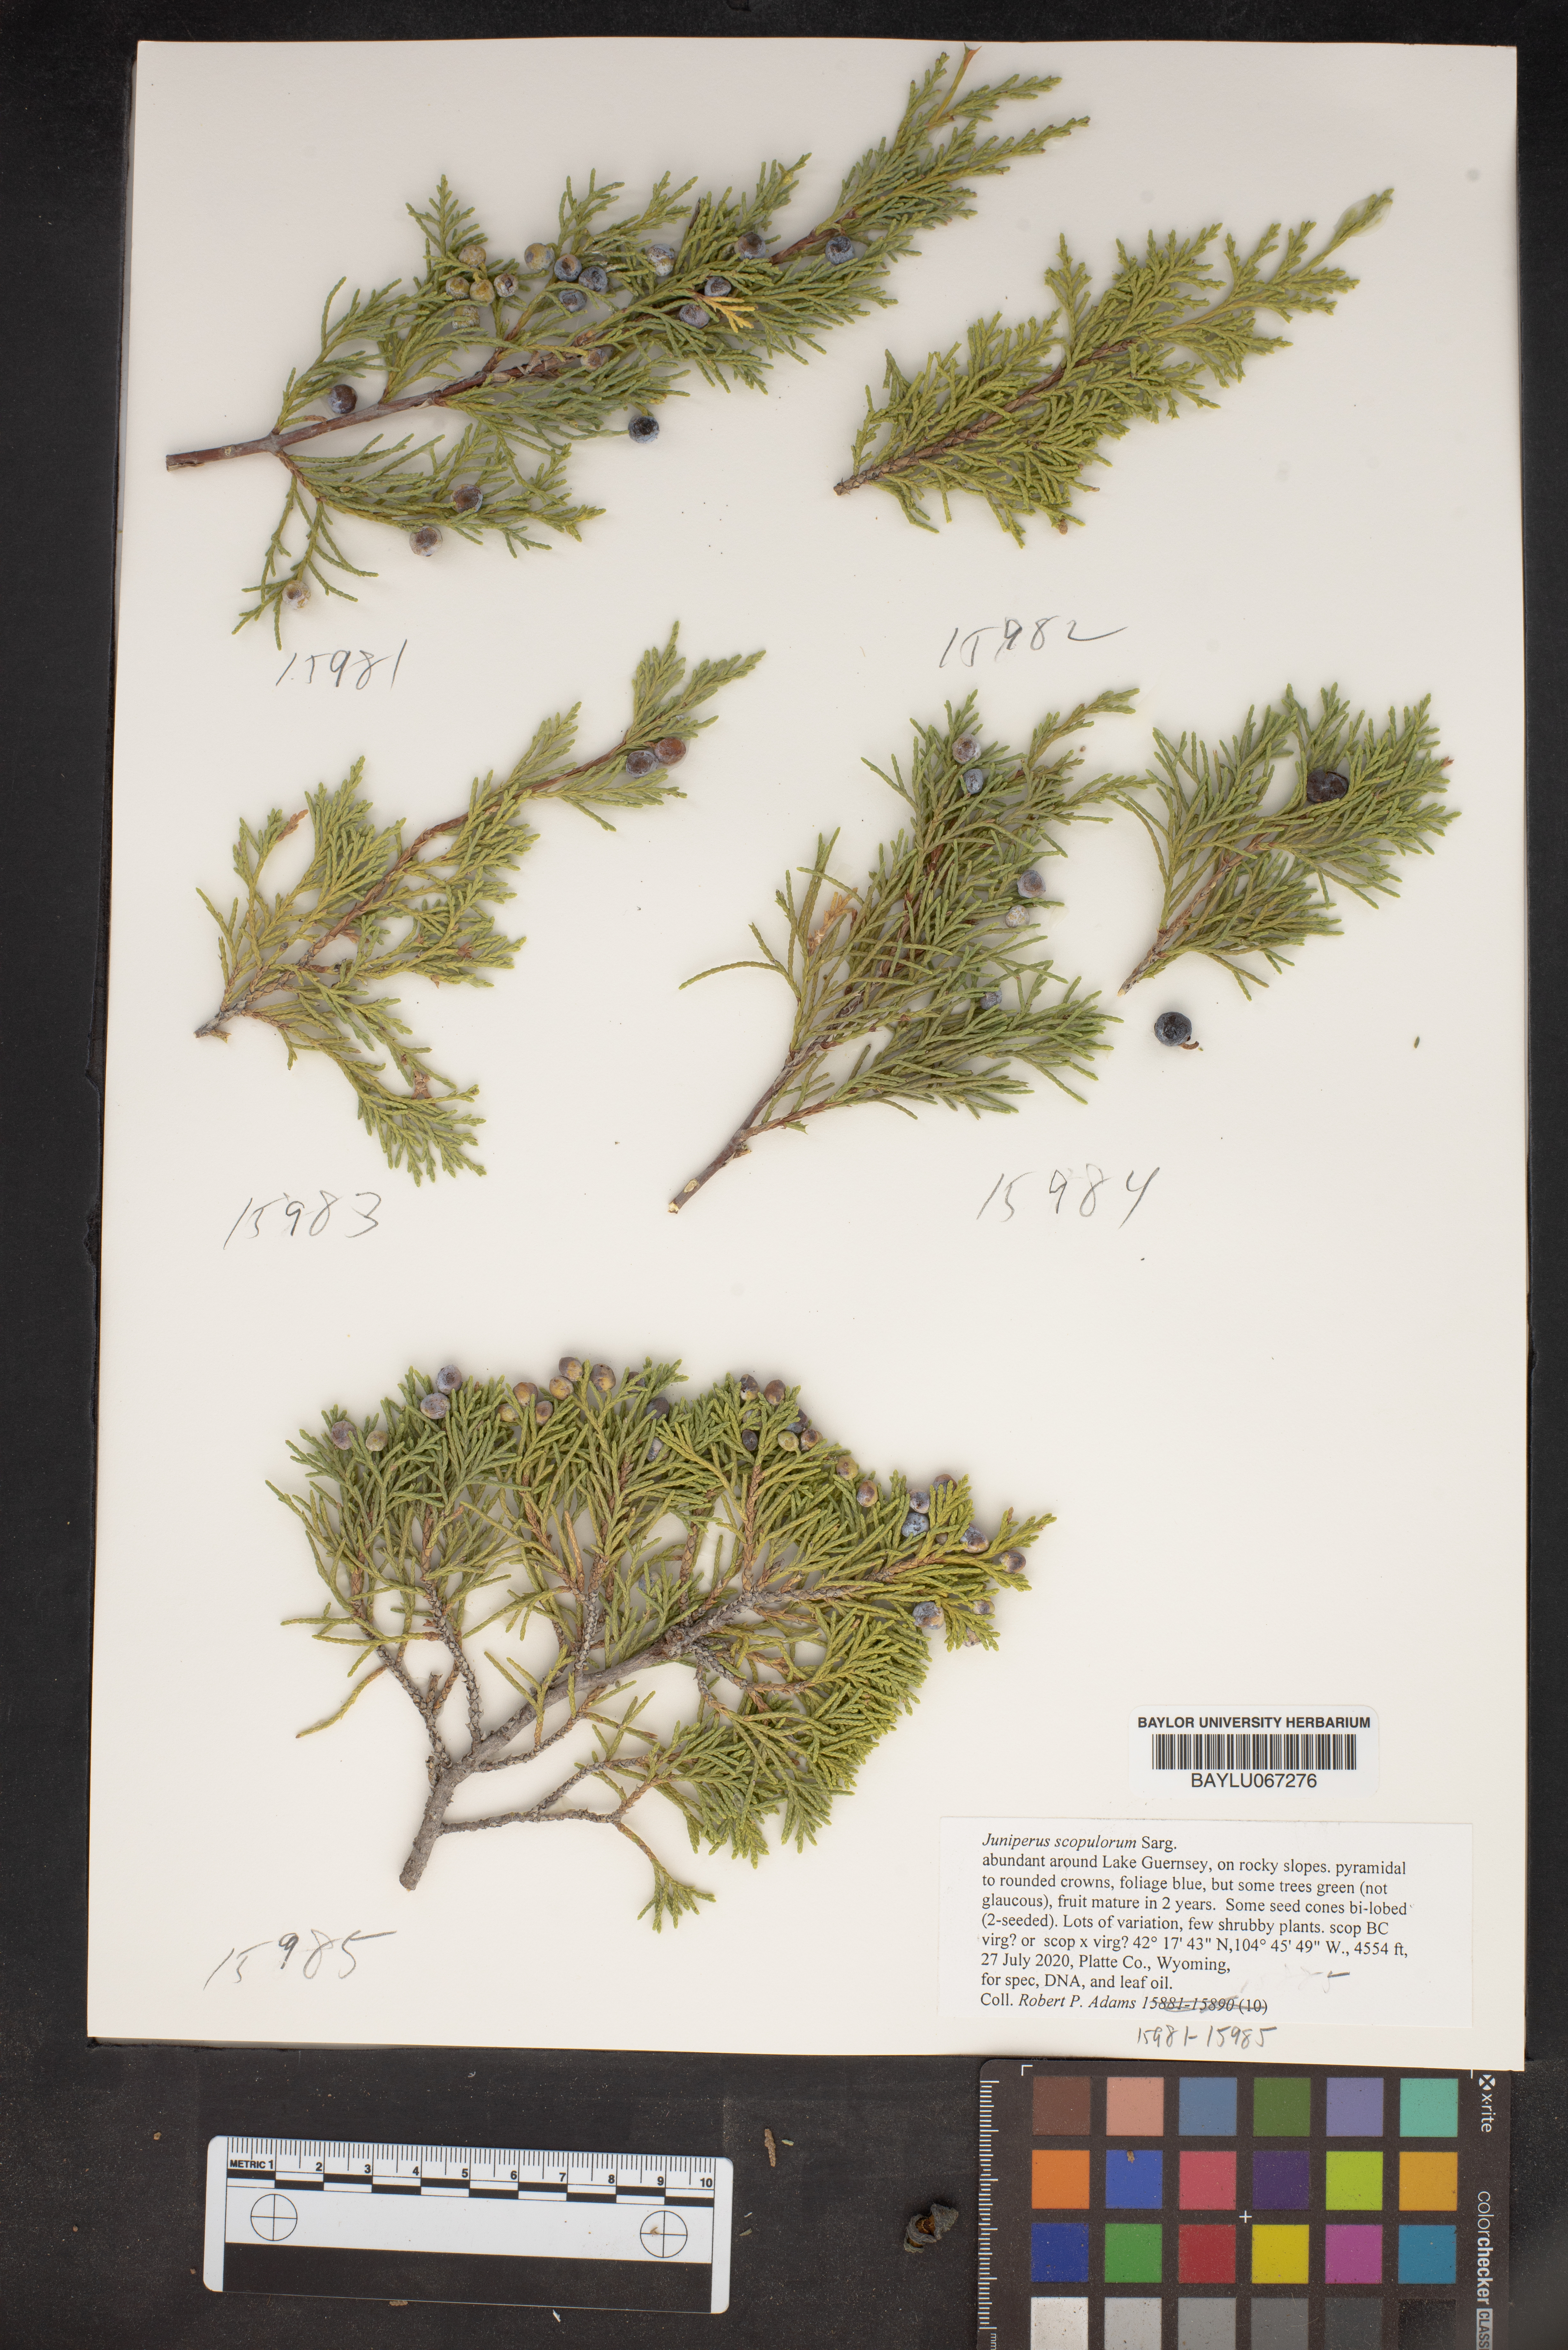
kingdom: Plantae
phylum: Tracheophyta
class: Pinopsida
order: Pinales
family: Cupressaceae
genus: Juniperus
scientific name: Juniperus scopulorum
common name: Rocky mountain juniper
